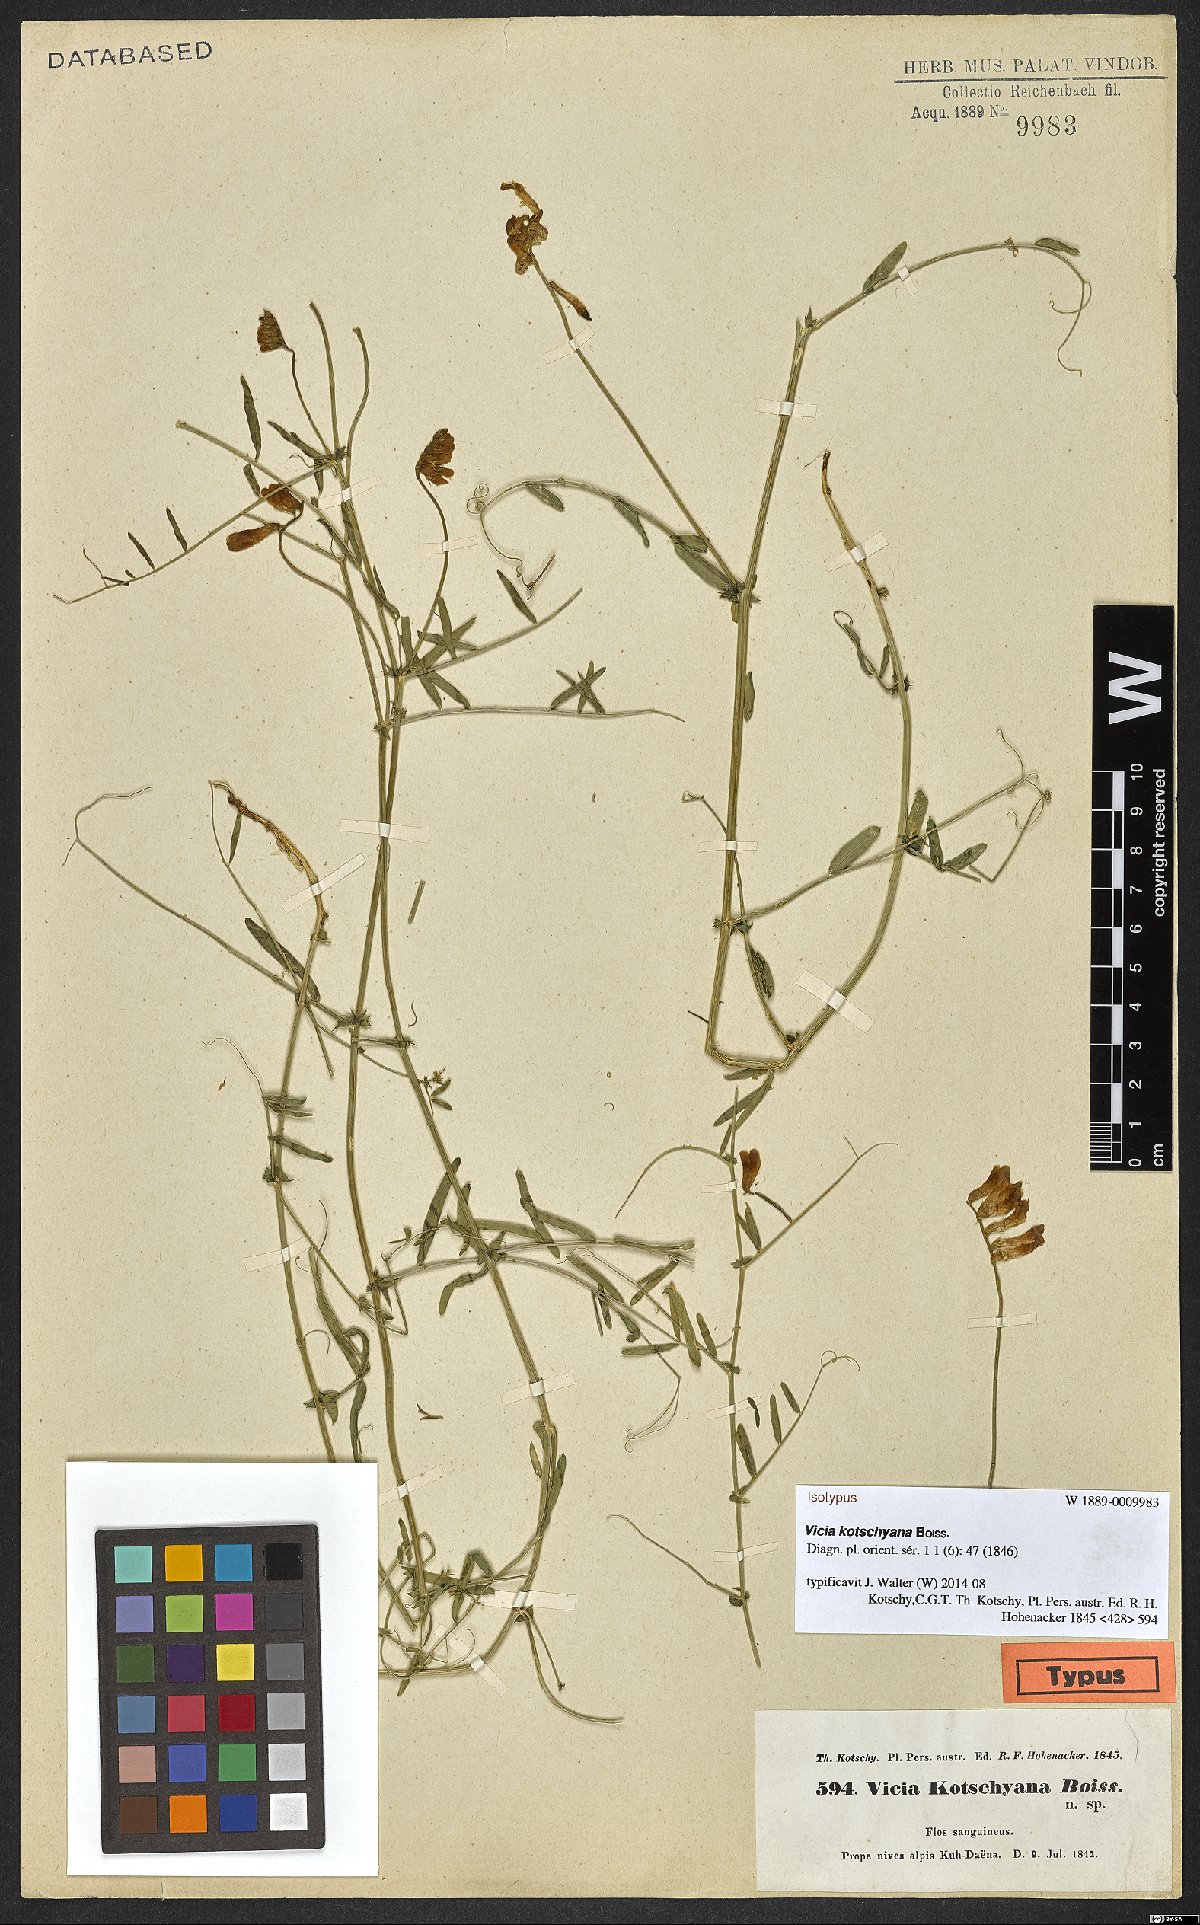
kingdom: Plantae
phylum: Tracheophyta
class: Magnoliopsida
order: Fabales
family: Fabaceae
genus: Vicia
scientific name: Vicia kotschyana
